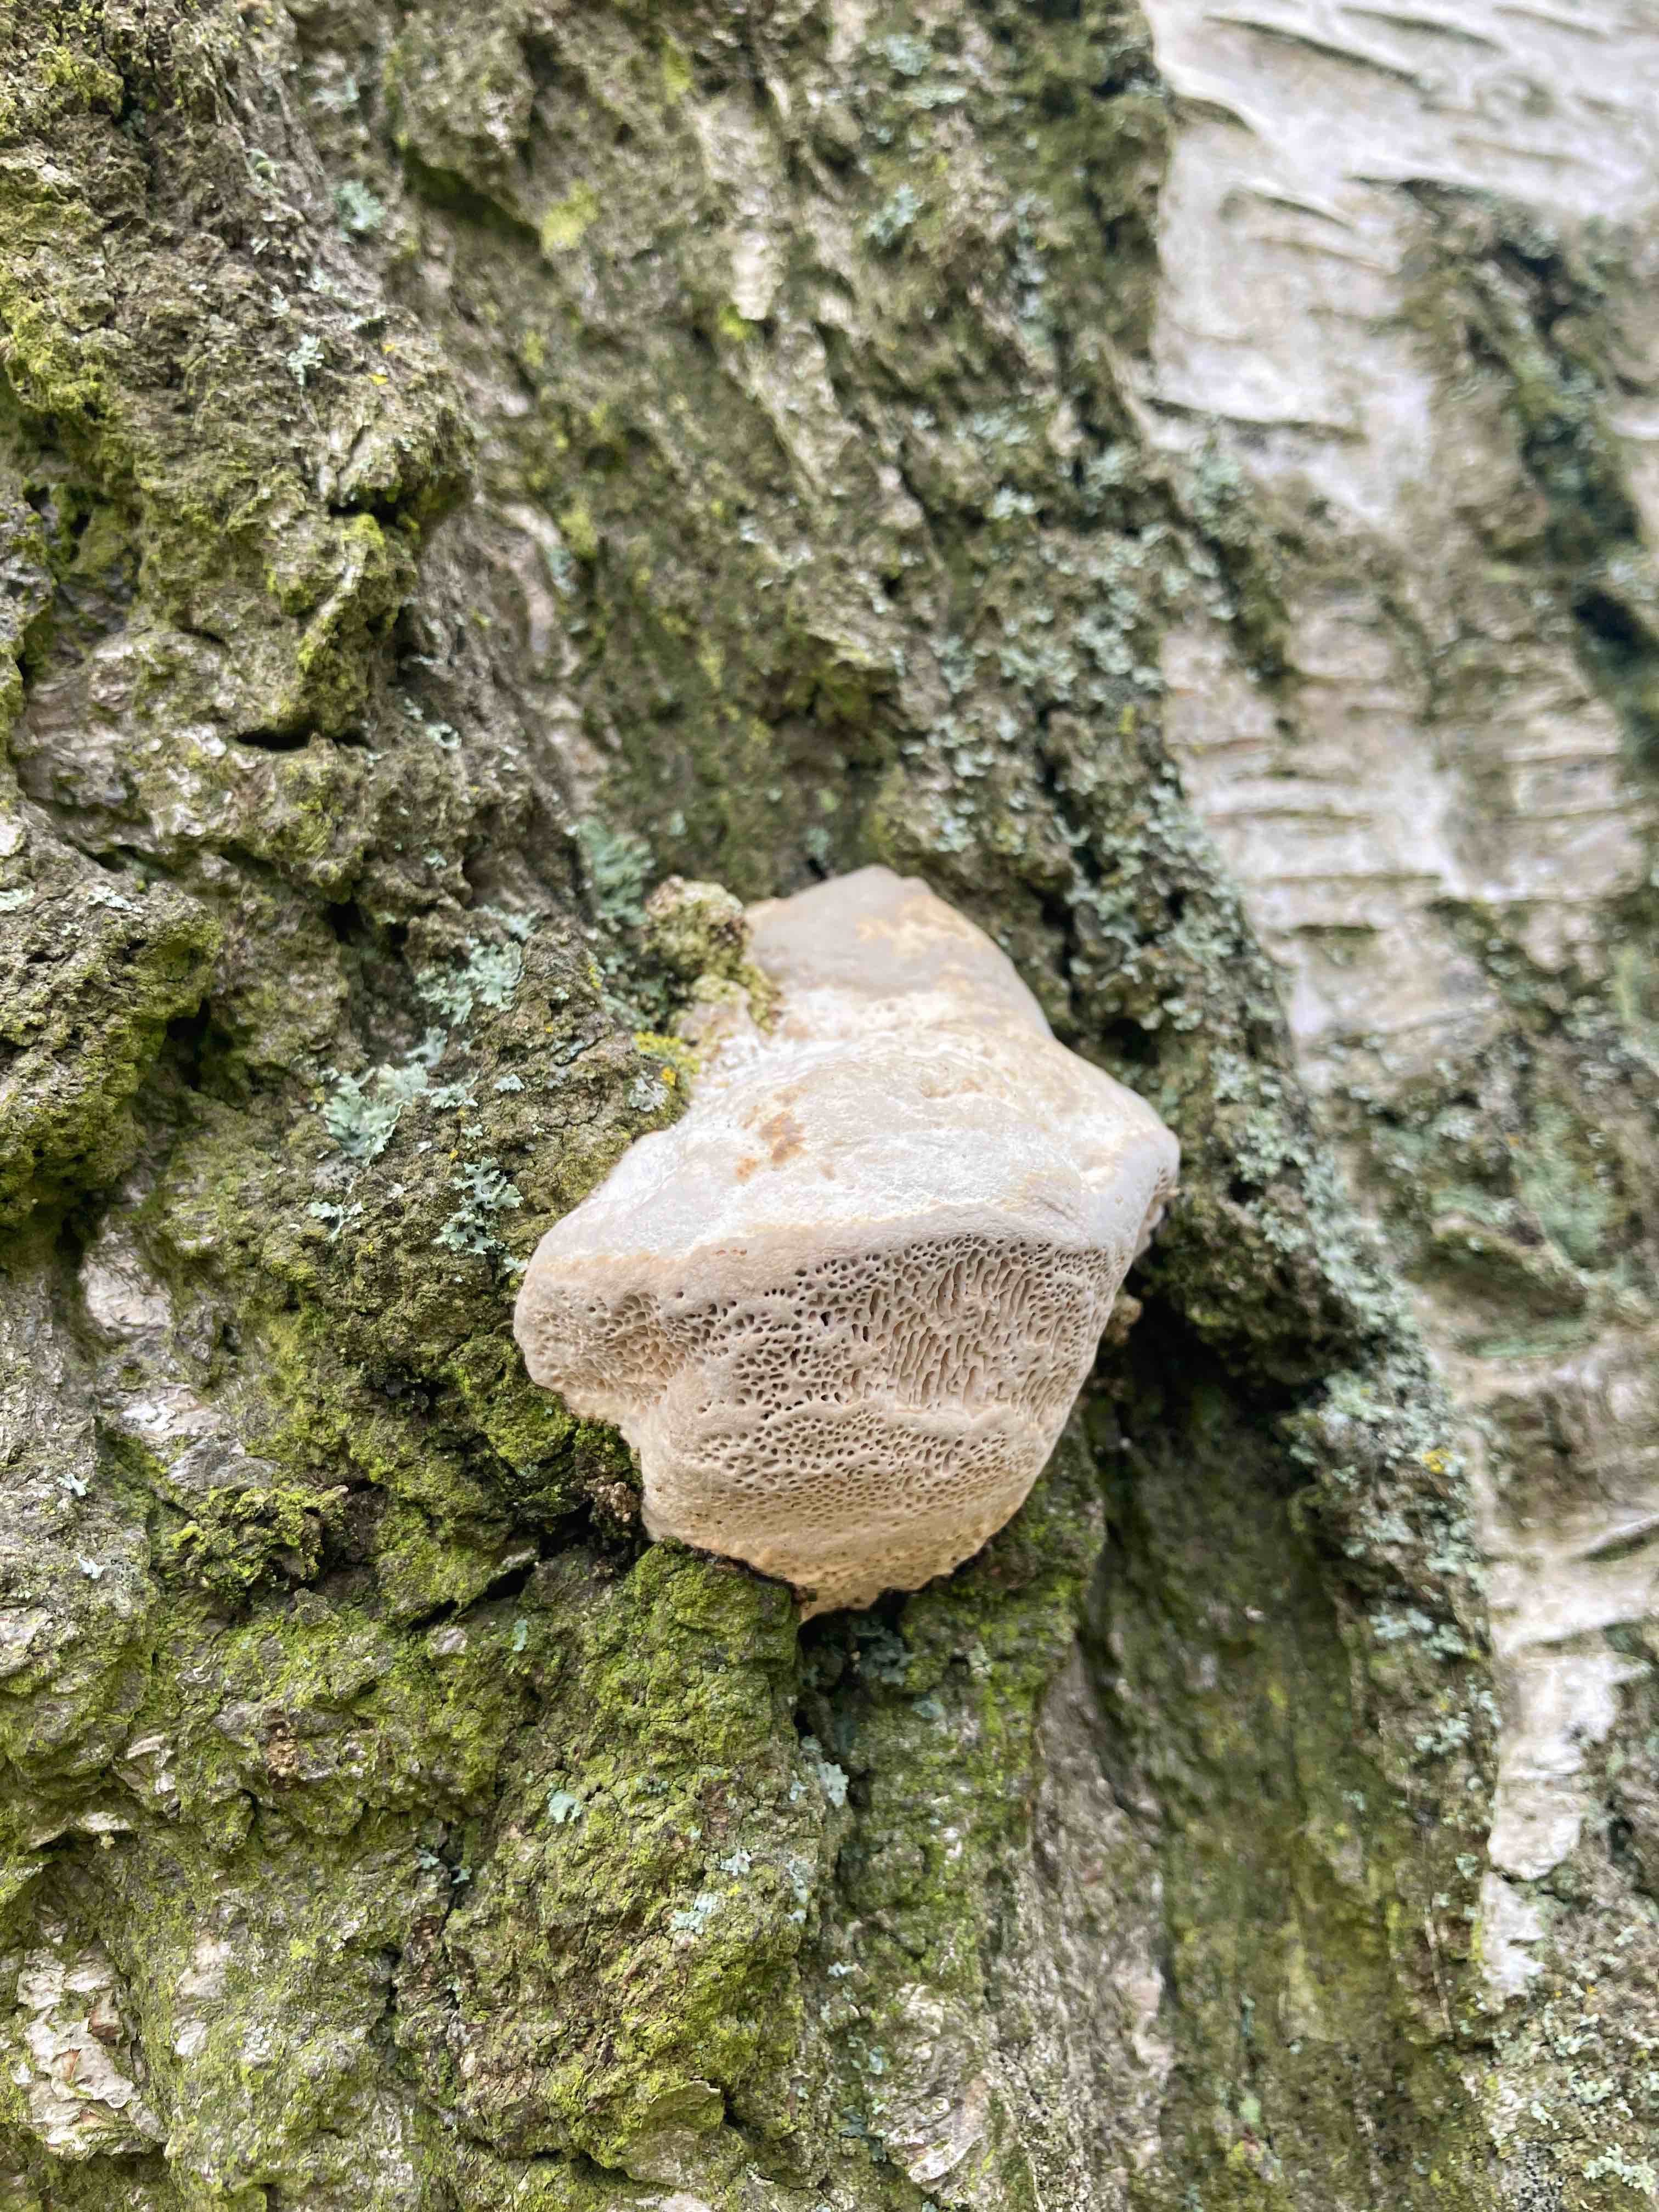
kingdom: Fungi
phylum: Basidiomycota
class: Agaricomycetes
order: Polyporales
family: Polyporaceae
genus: Trametes
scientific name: Trametes gibbosa
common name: puklet læderporesvamp
